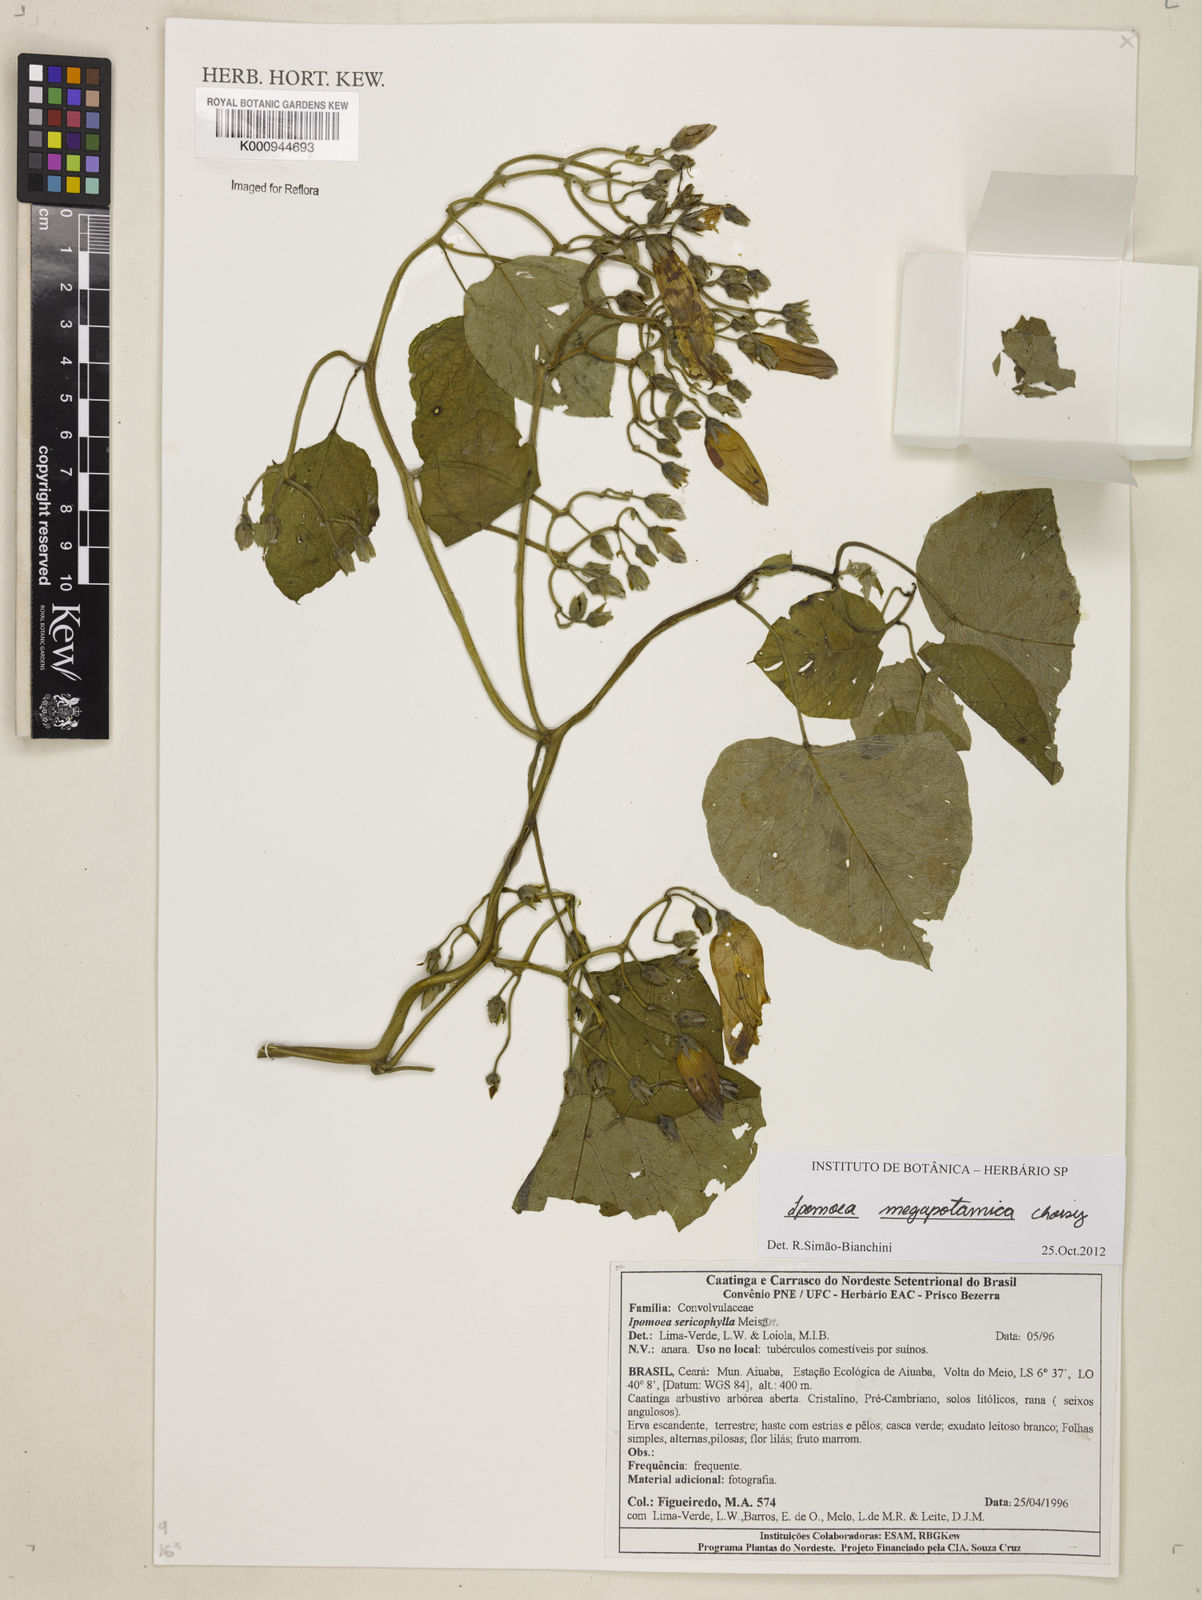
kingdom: Plantae
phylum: Tracheophyta
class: Magnoliopsida
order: Solanales
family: Convolvulaceae
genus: Ipomoea
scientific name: Ipomoea megapotamica
